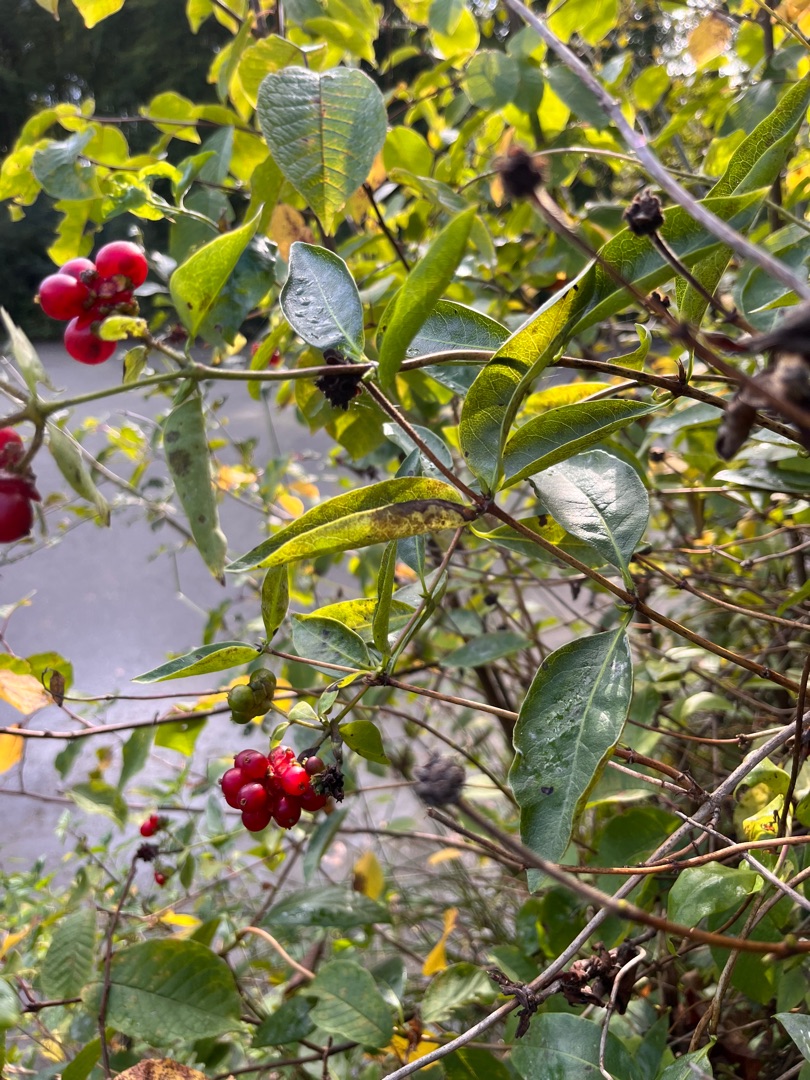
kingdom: Plantae
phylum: Tracheophyta
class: Magnoliopsida
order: Dipsacales
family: Caprifoliaceae
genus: Lonicera
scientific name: Lonicera periclymenum
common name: Almindelig gedeblad
